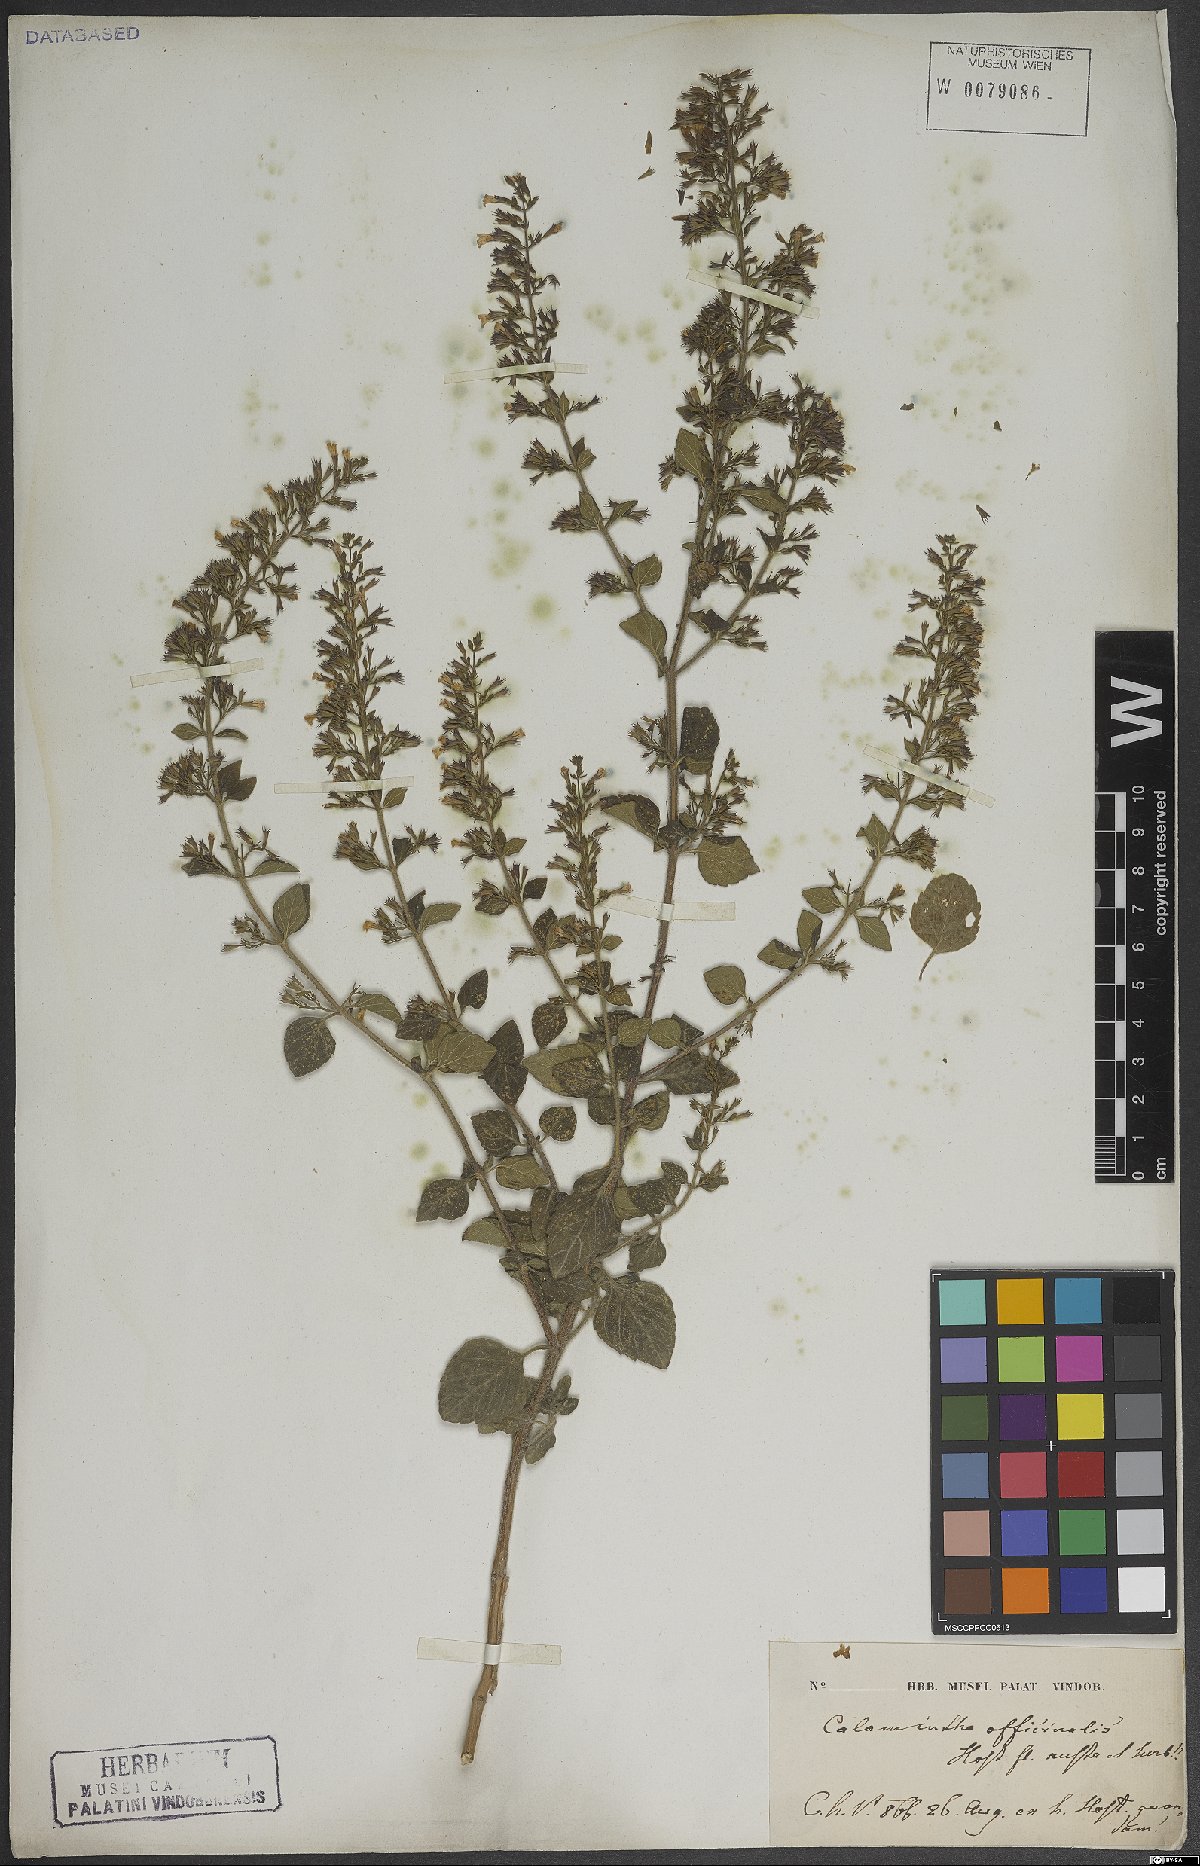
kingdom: Plantae
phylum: Tracheophyta
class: Magnoliopsida
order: Lamiales
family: Lamiaceae
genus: Clinopodium
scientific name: Clinopodium menthifolium
